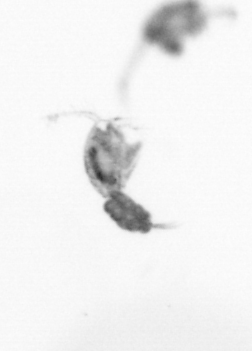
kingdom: Animalia
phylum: Arthropoda
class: Copepoda
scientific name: Copepoda
